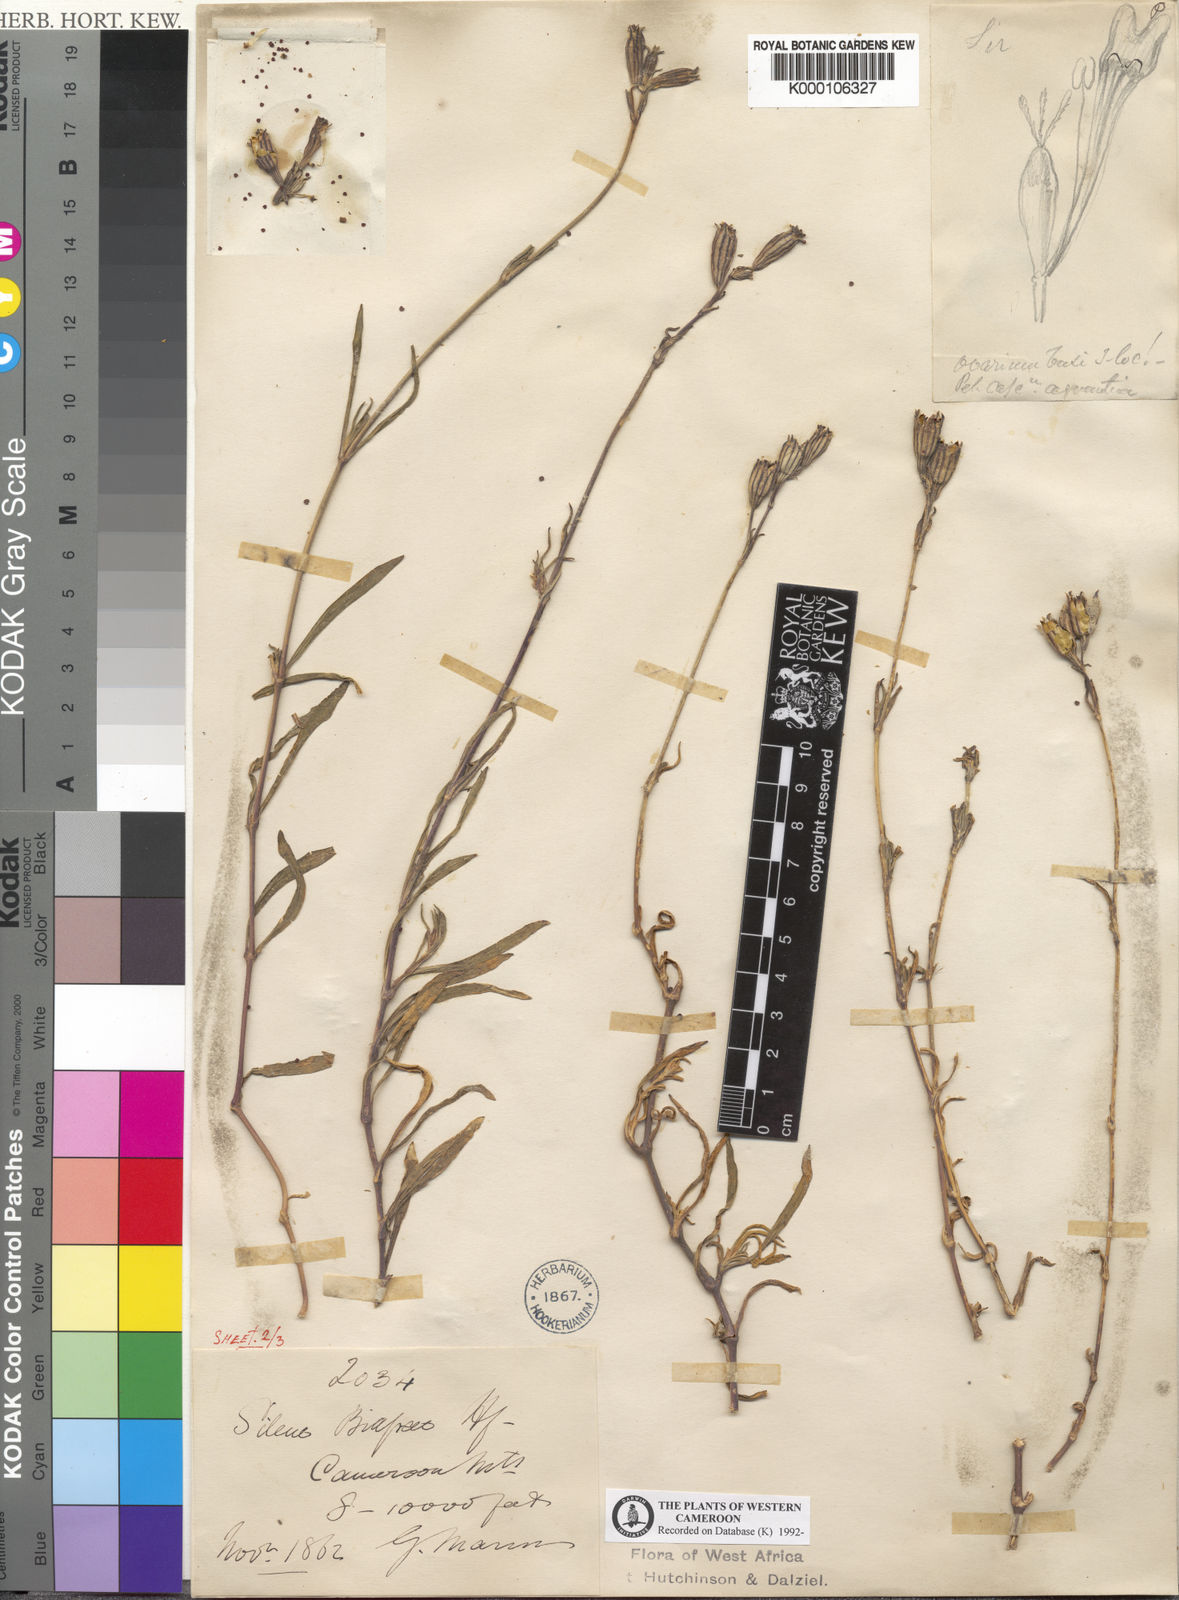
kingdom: Plantae
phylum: Tracheophyta
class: Magnoliopsida
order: Caryophyllales
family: Caryophyllaceae
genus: Silene
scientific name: Silene biafrae
